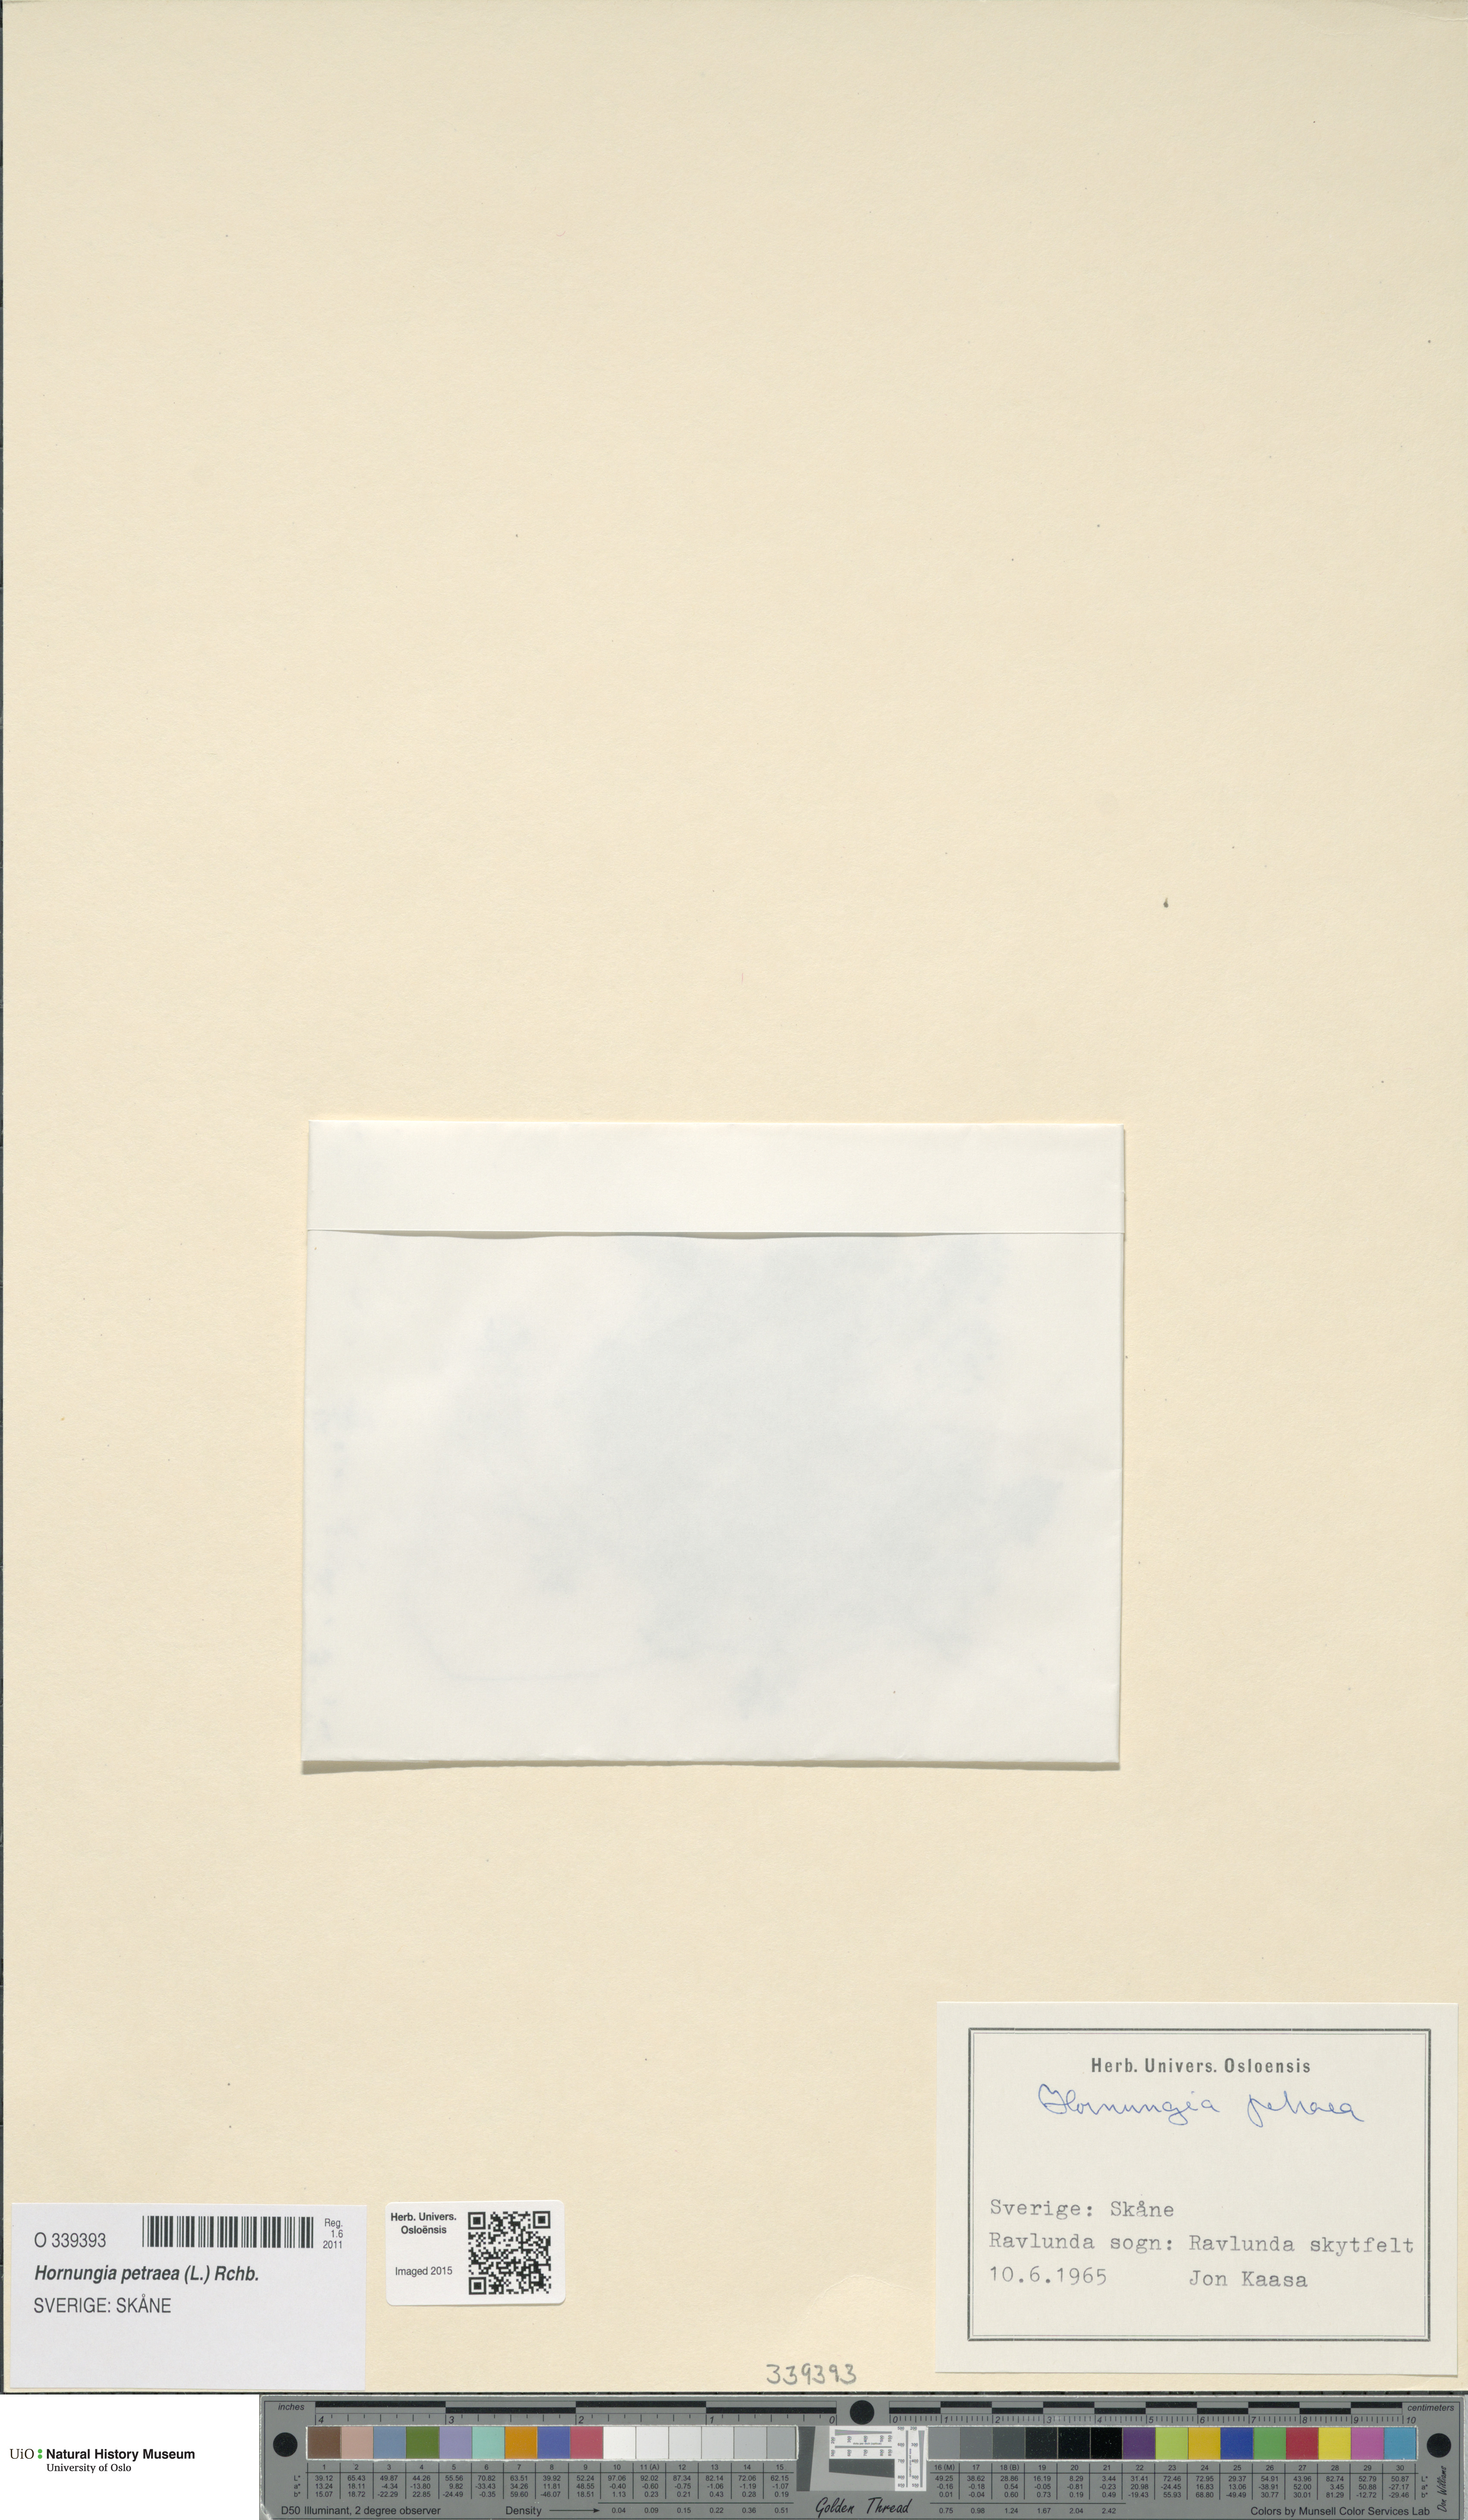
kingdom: Plantae
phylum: Tracheophyta
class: Magnoliopsida
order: Brassicales
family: Brassicaceae
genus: Hornungia
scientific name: Hornungia petraea
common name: Hutchinsia
